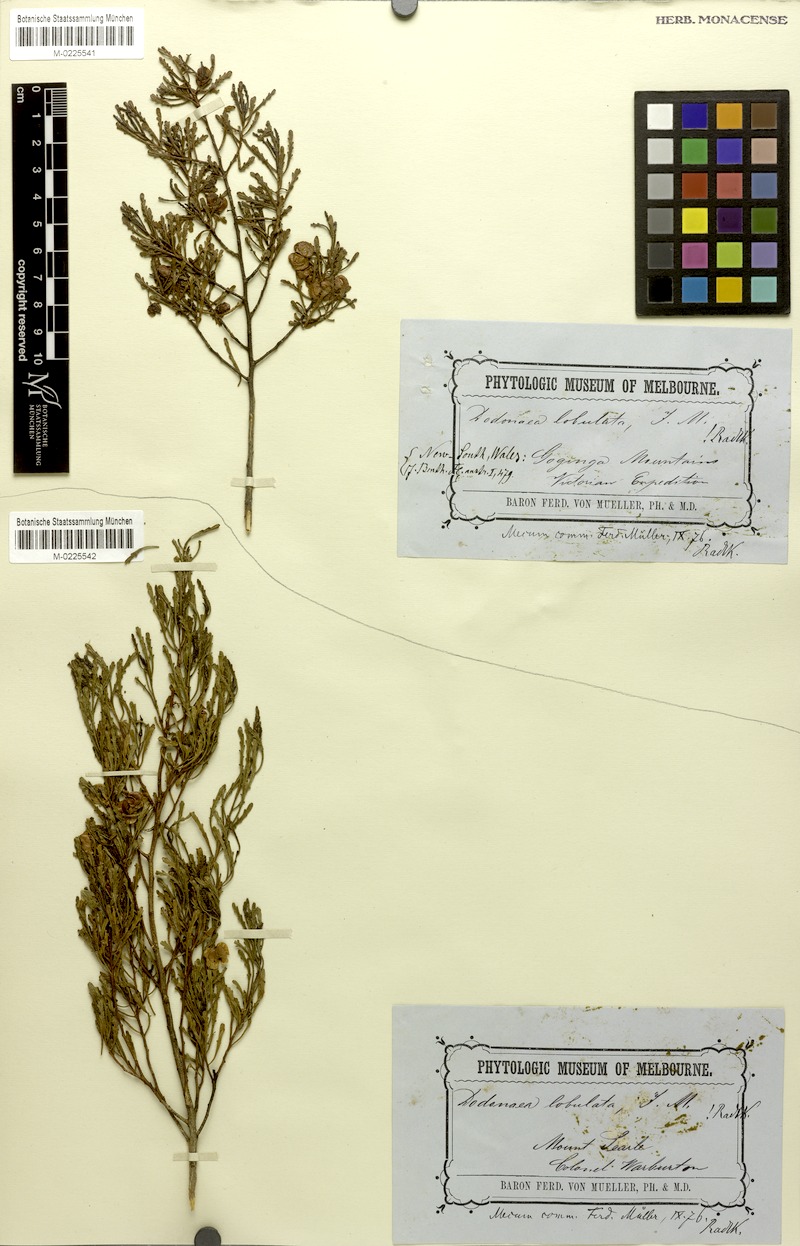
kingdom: Plantae
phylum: Tracheophyta
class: Magnoliopsida
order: Sapindales
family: Sapindaceae
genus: Dodonaea
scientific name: Dodonaea lobulata
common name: Lobe-leaf hopbush
